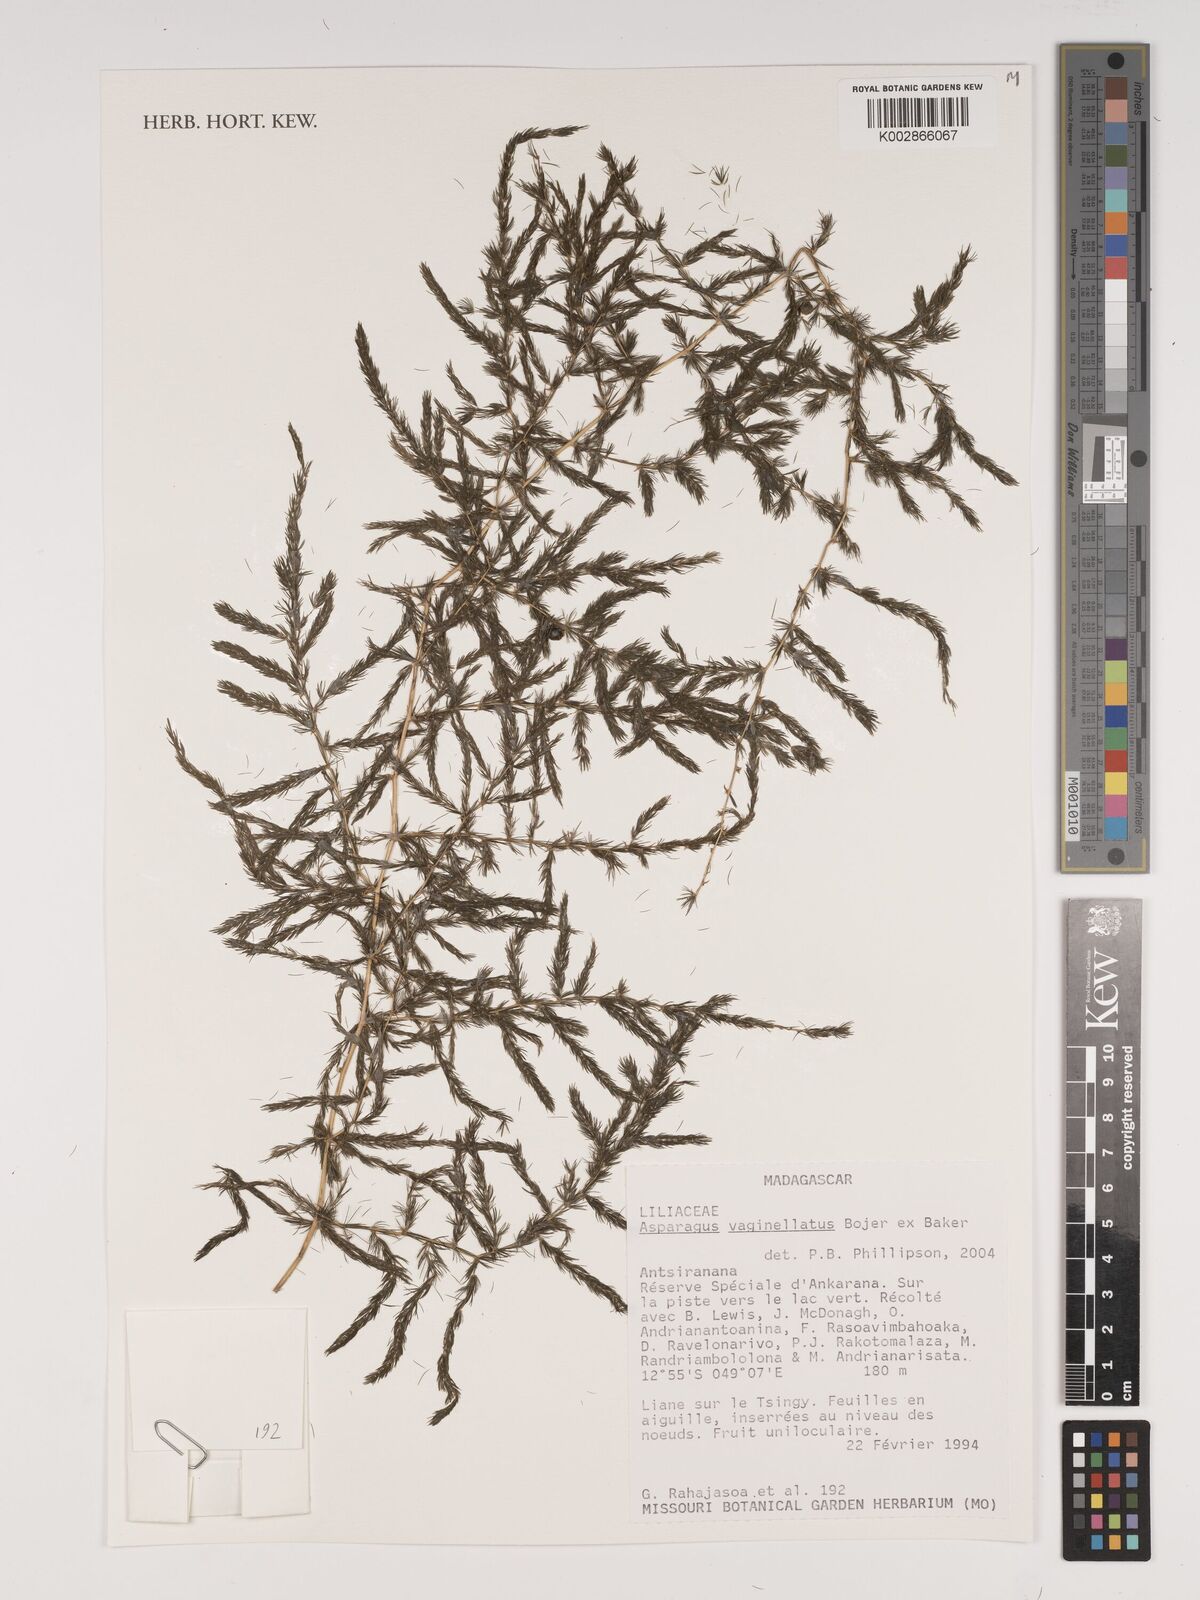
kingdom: Plantae
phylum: Tracheophyta
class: Liliopsida
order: Asparagales
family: Asparagaceae
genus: Asparagus
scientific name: Asparagus vaginellatus
